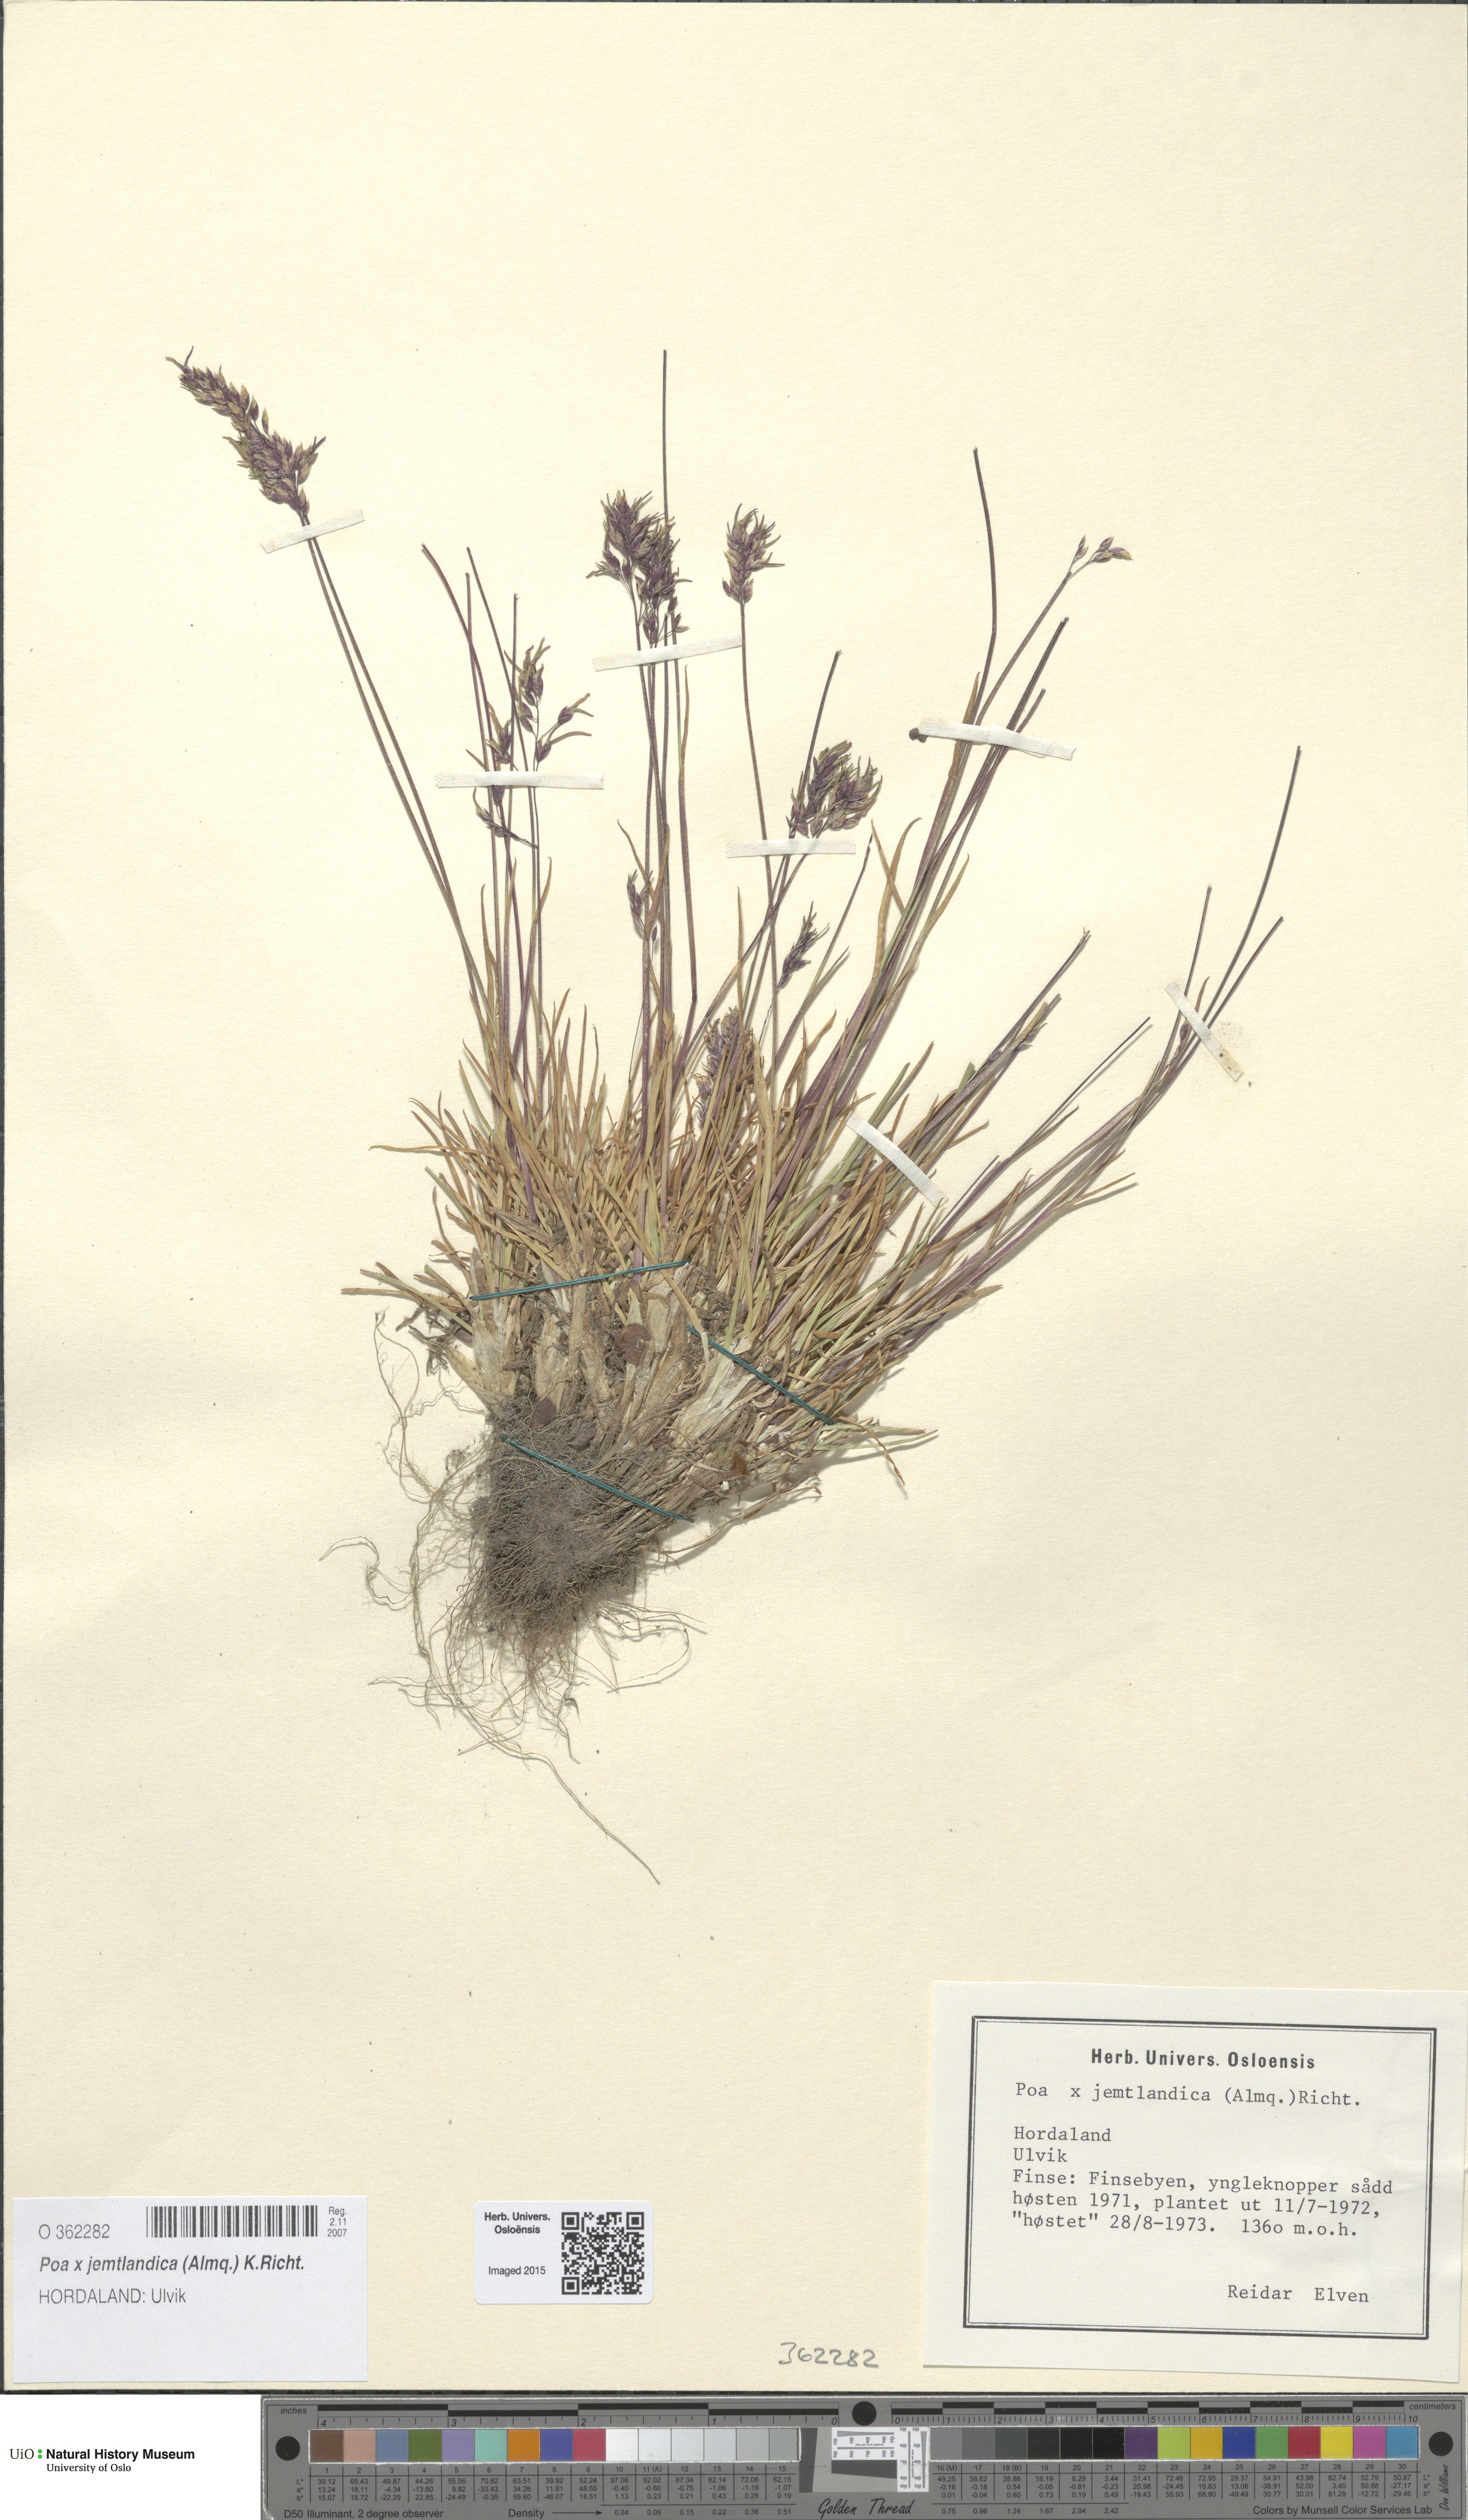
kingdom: Plantae
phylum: Tracheophyta
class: Liliopsida
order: Poales
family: Poaceae
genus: Poa
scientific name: Poa jemtlandica
